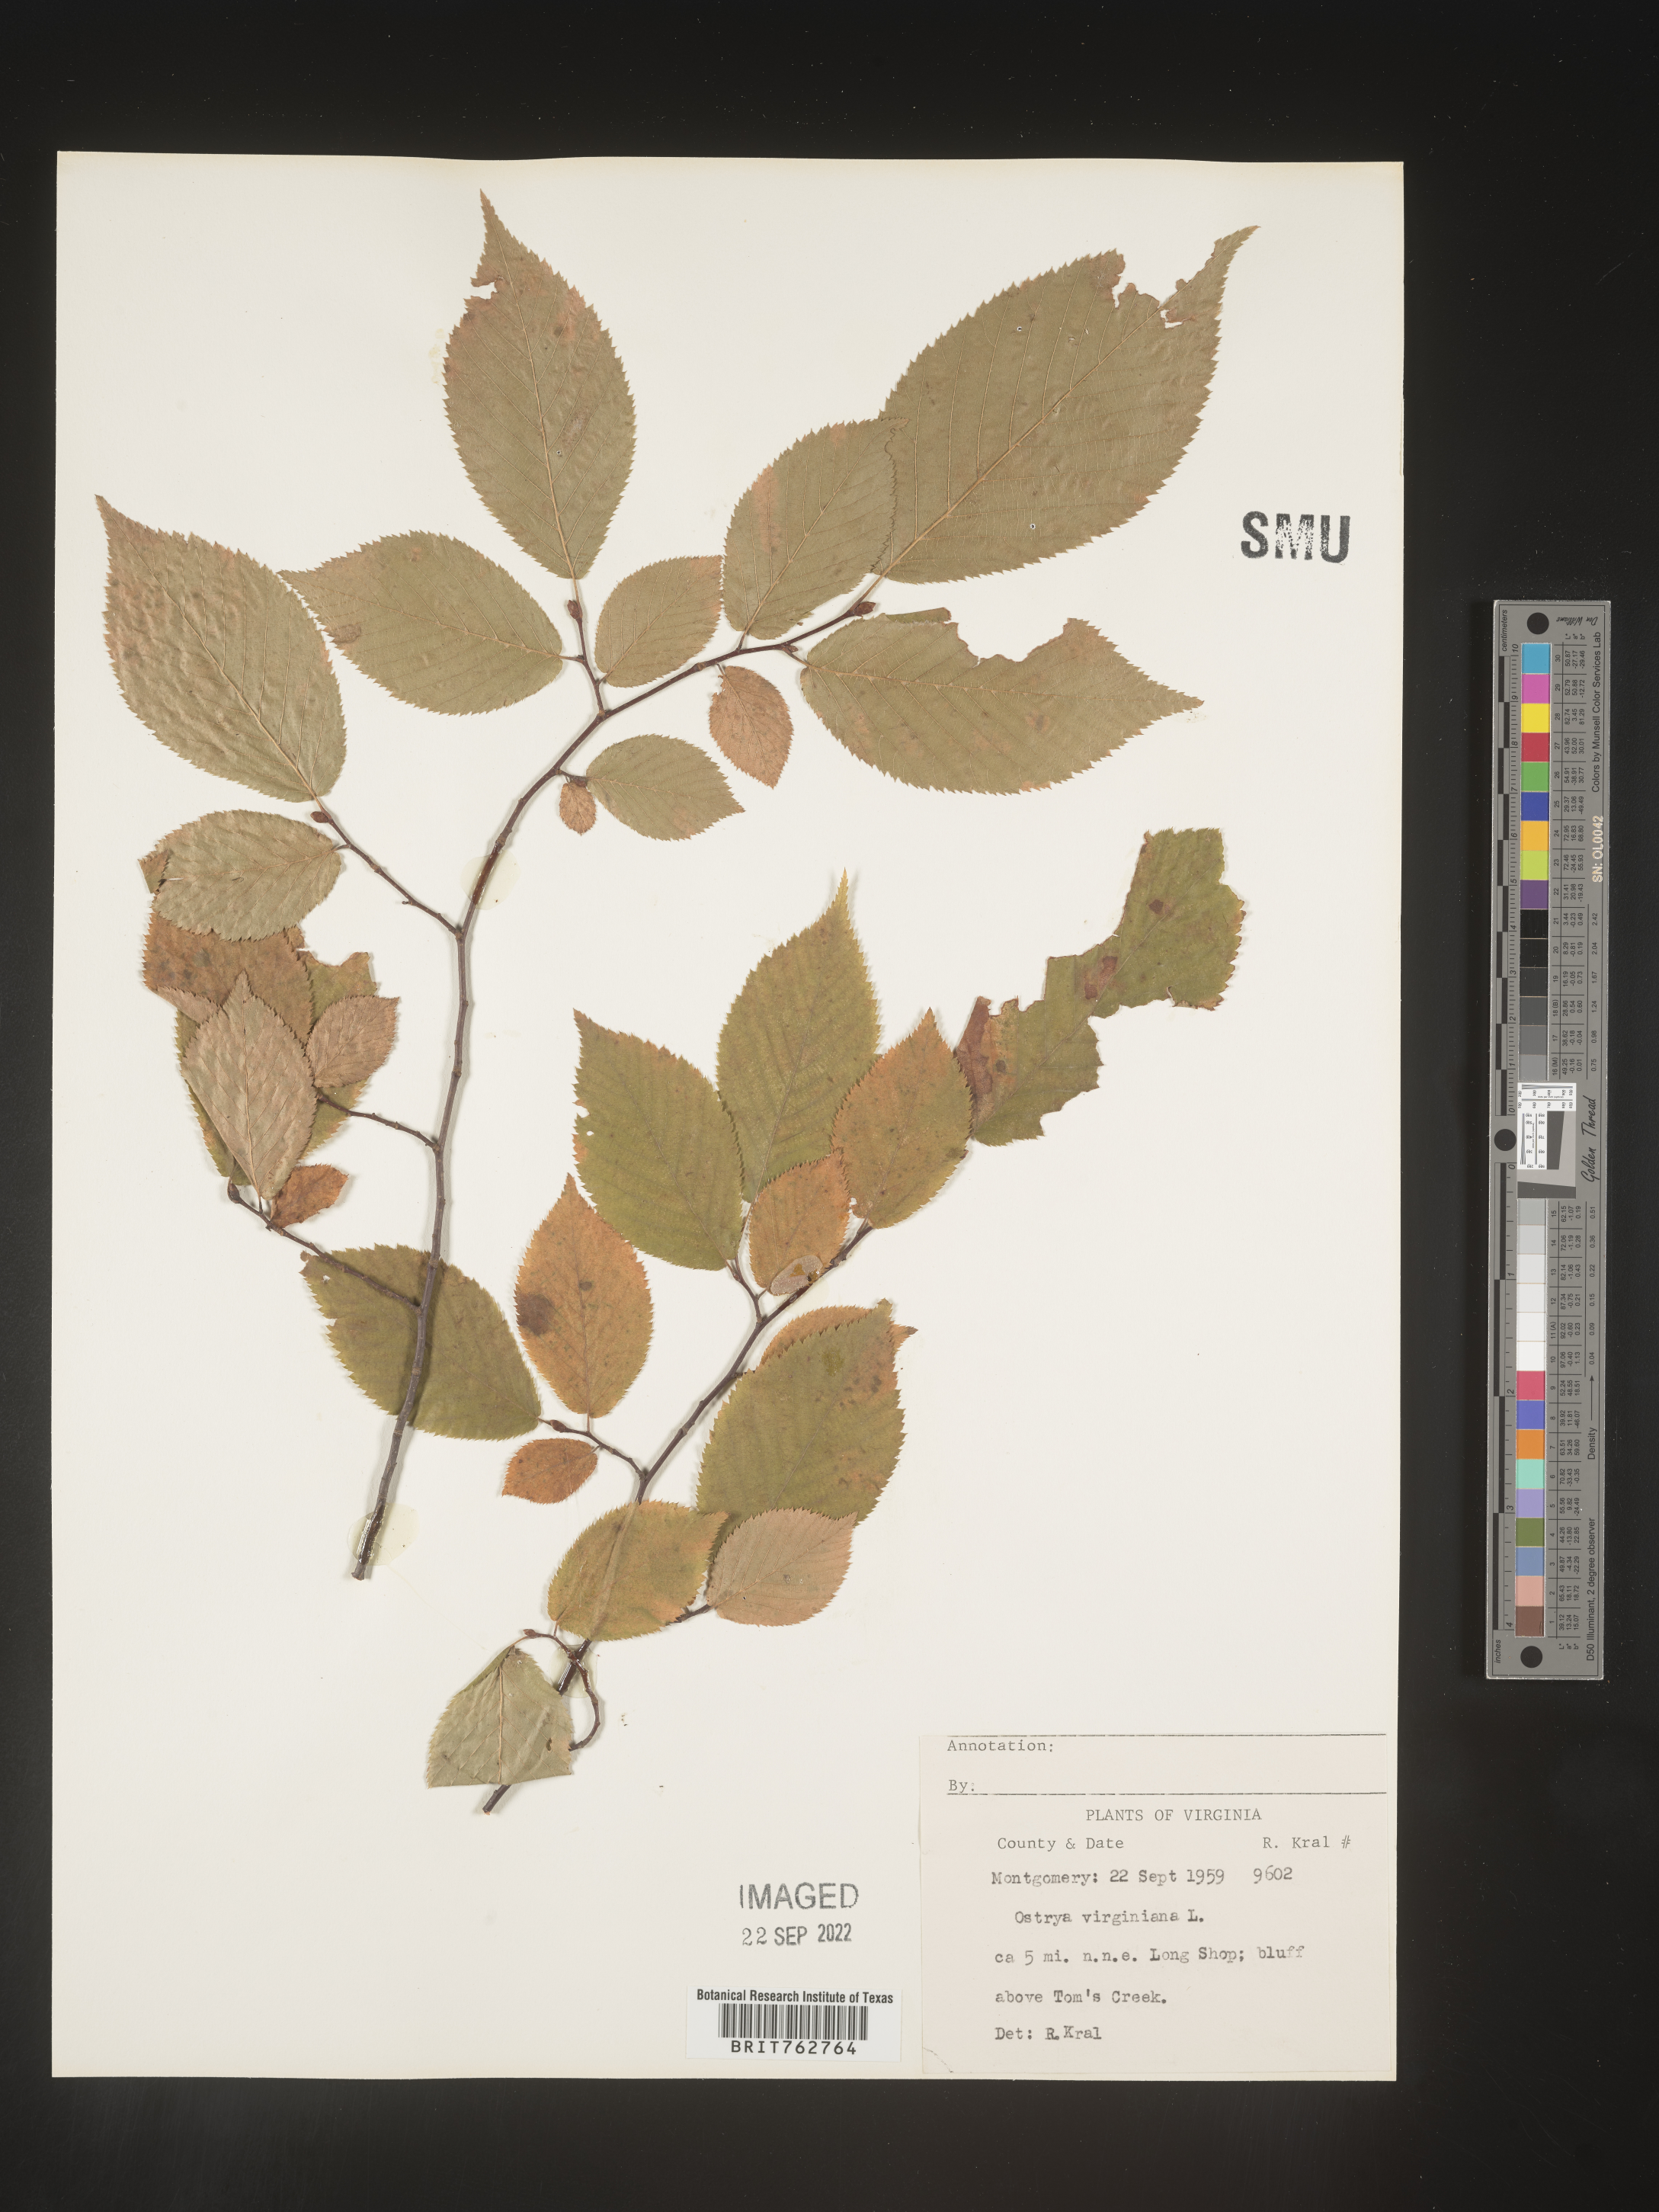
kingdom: Plantae
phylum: Tracheophyta
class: Magnoliopsida
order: Fagales
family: Betulaceae
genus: Ostrya
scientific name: Ostrya virginiana
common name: Ironwood
